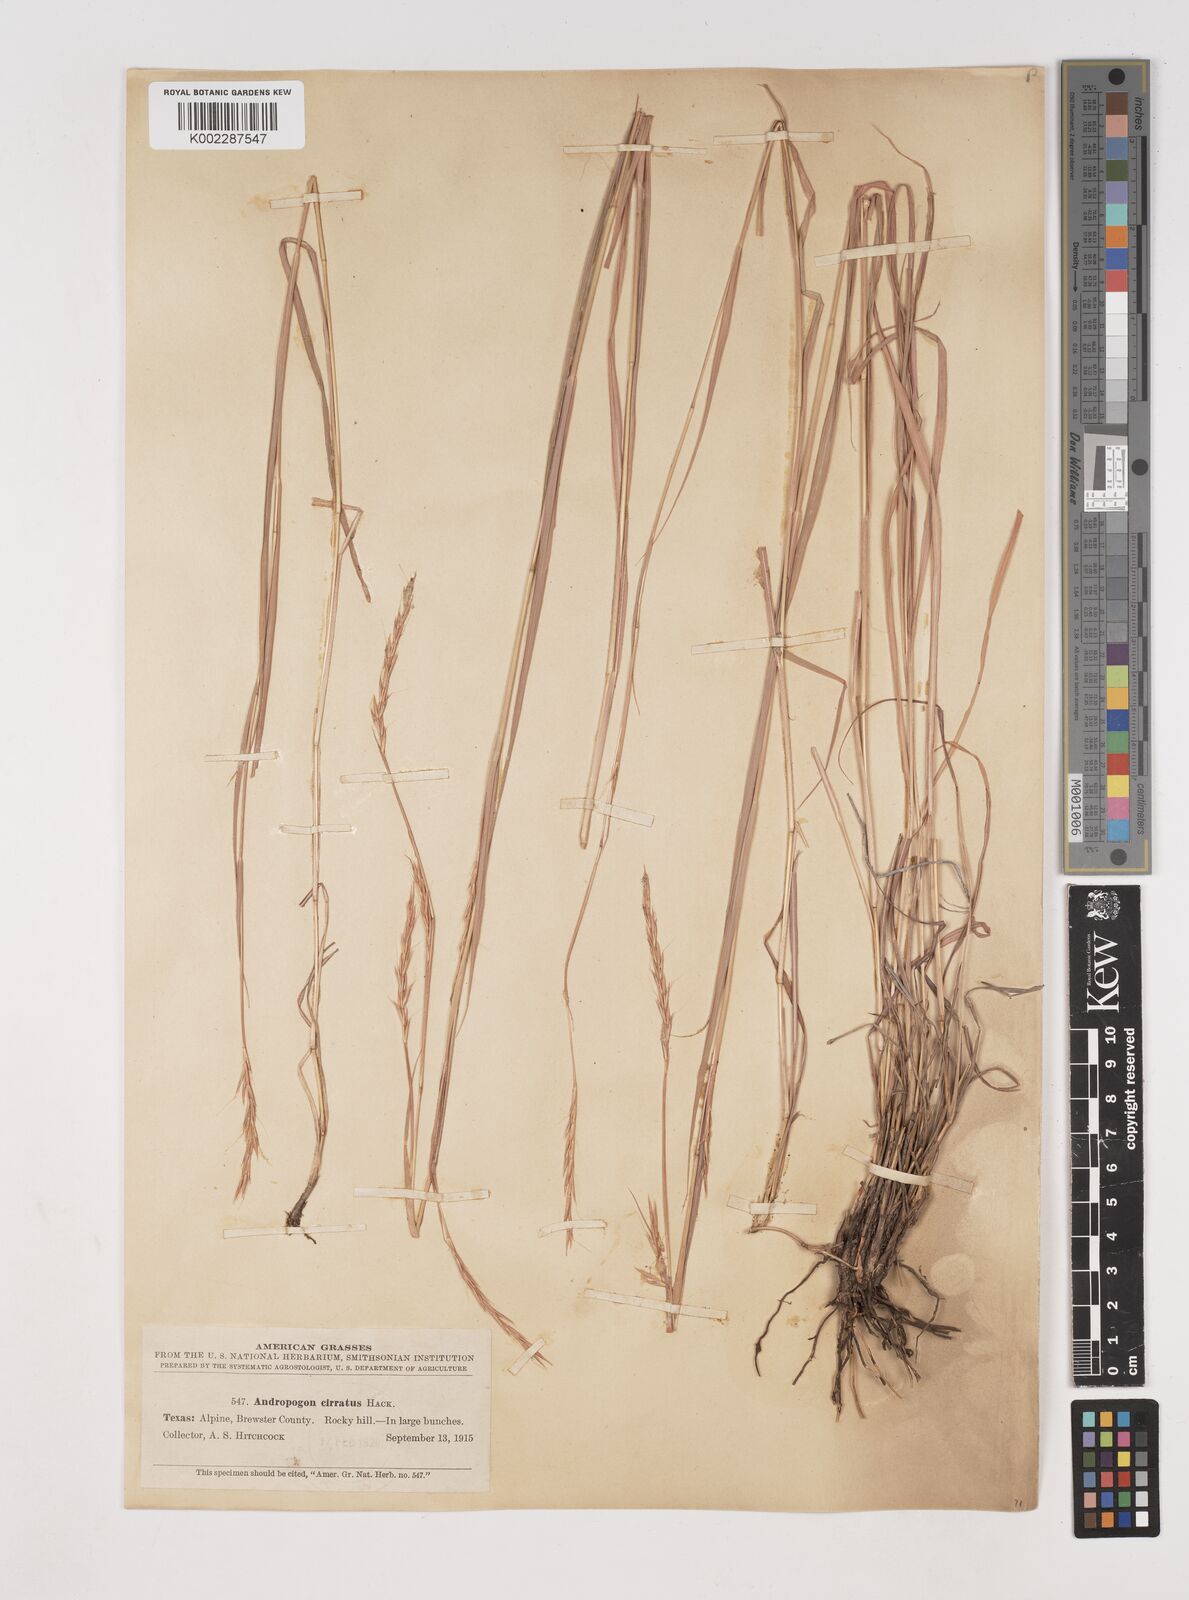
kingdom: Plantae
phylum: Tracheophyta
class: Liliopsida
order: Poales
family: Poaceae
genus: Andropogon
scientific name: Andropogon cirratus
